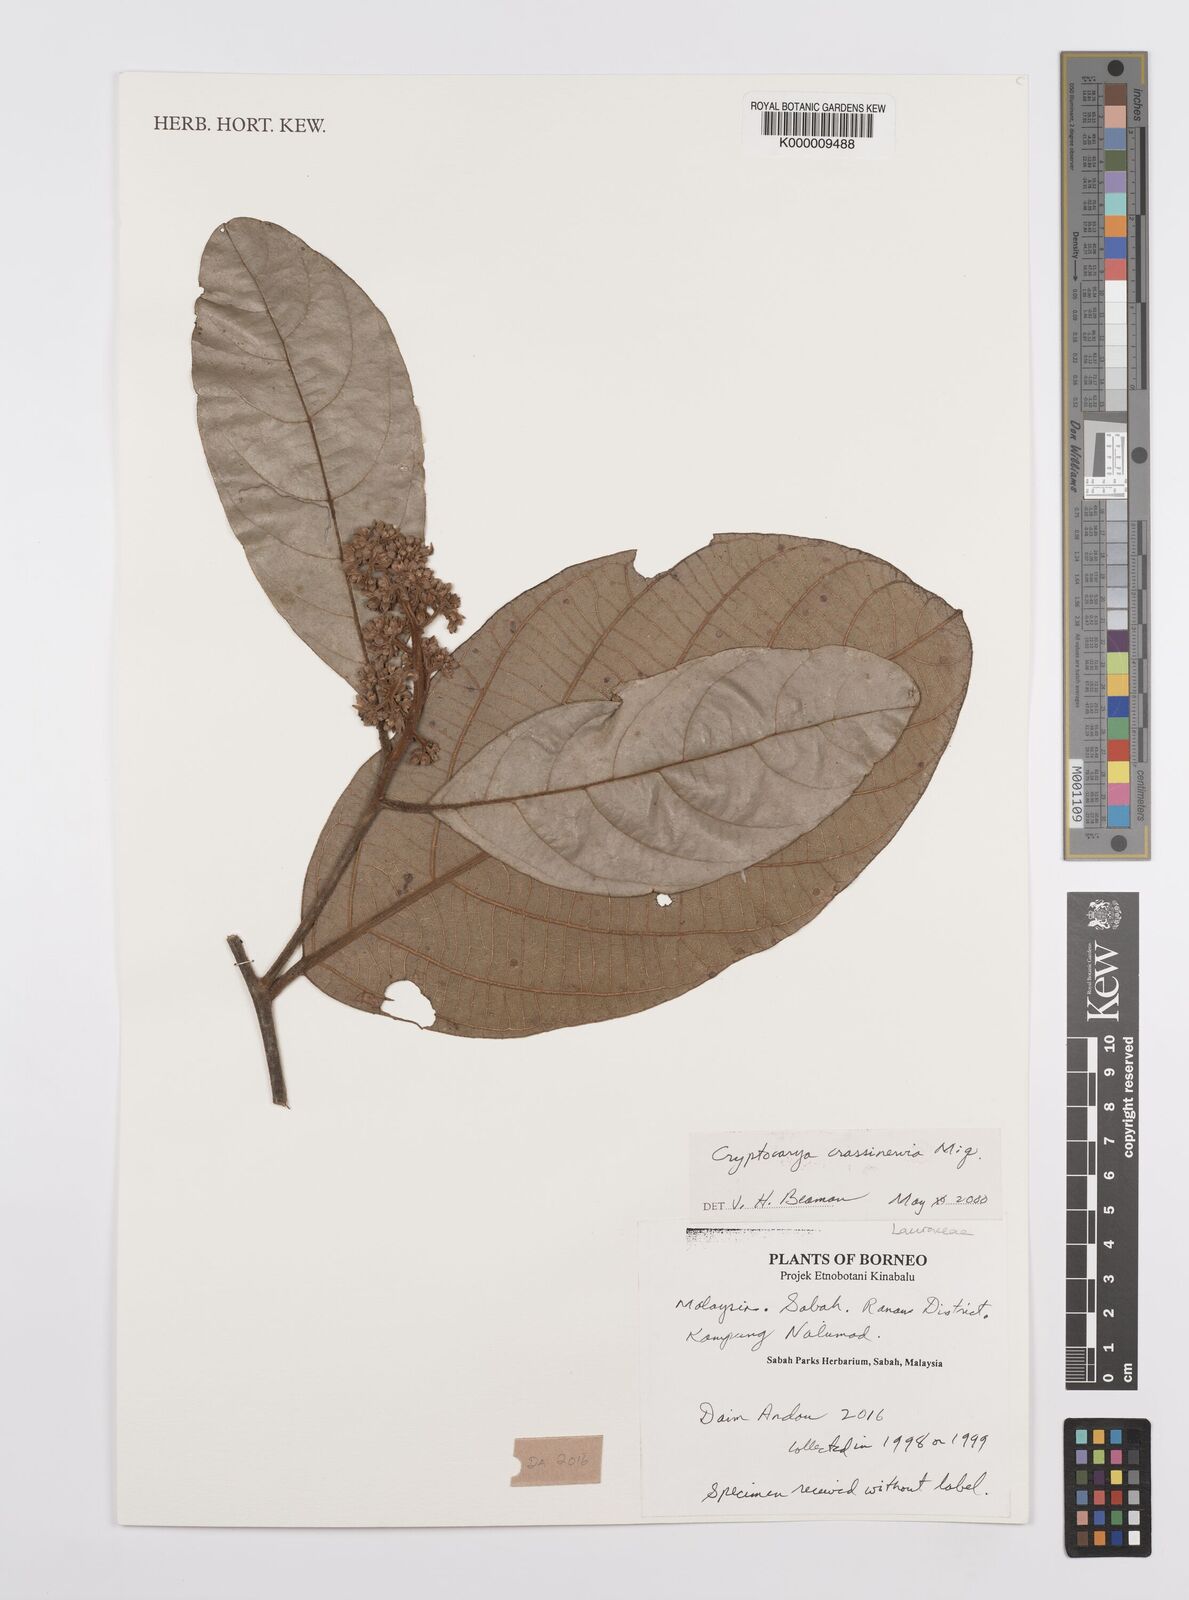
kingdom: Plantae
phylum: Tracheophyta
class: Magnoliopsida
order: Laurales
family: Lauraceae
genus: Cryptocarya
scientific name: Cryptocarya diversifolia
